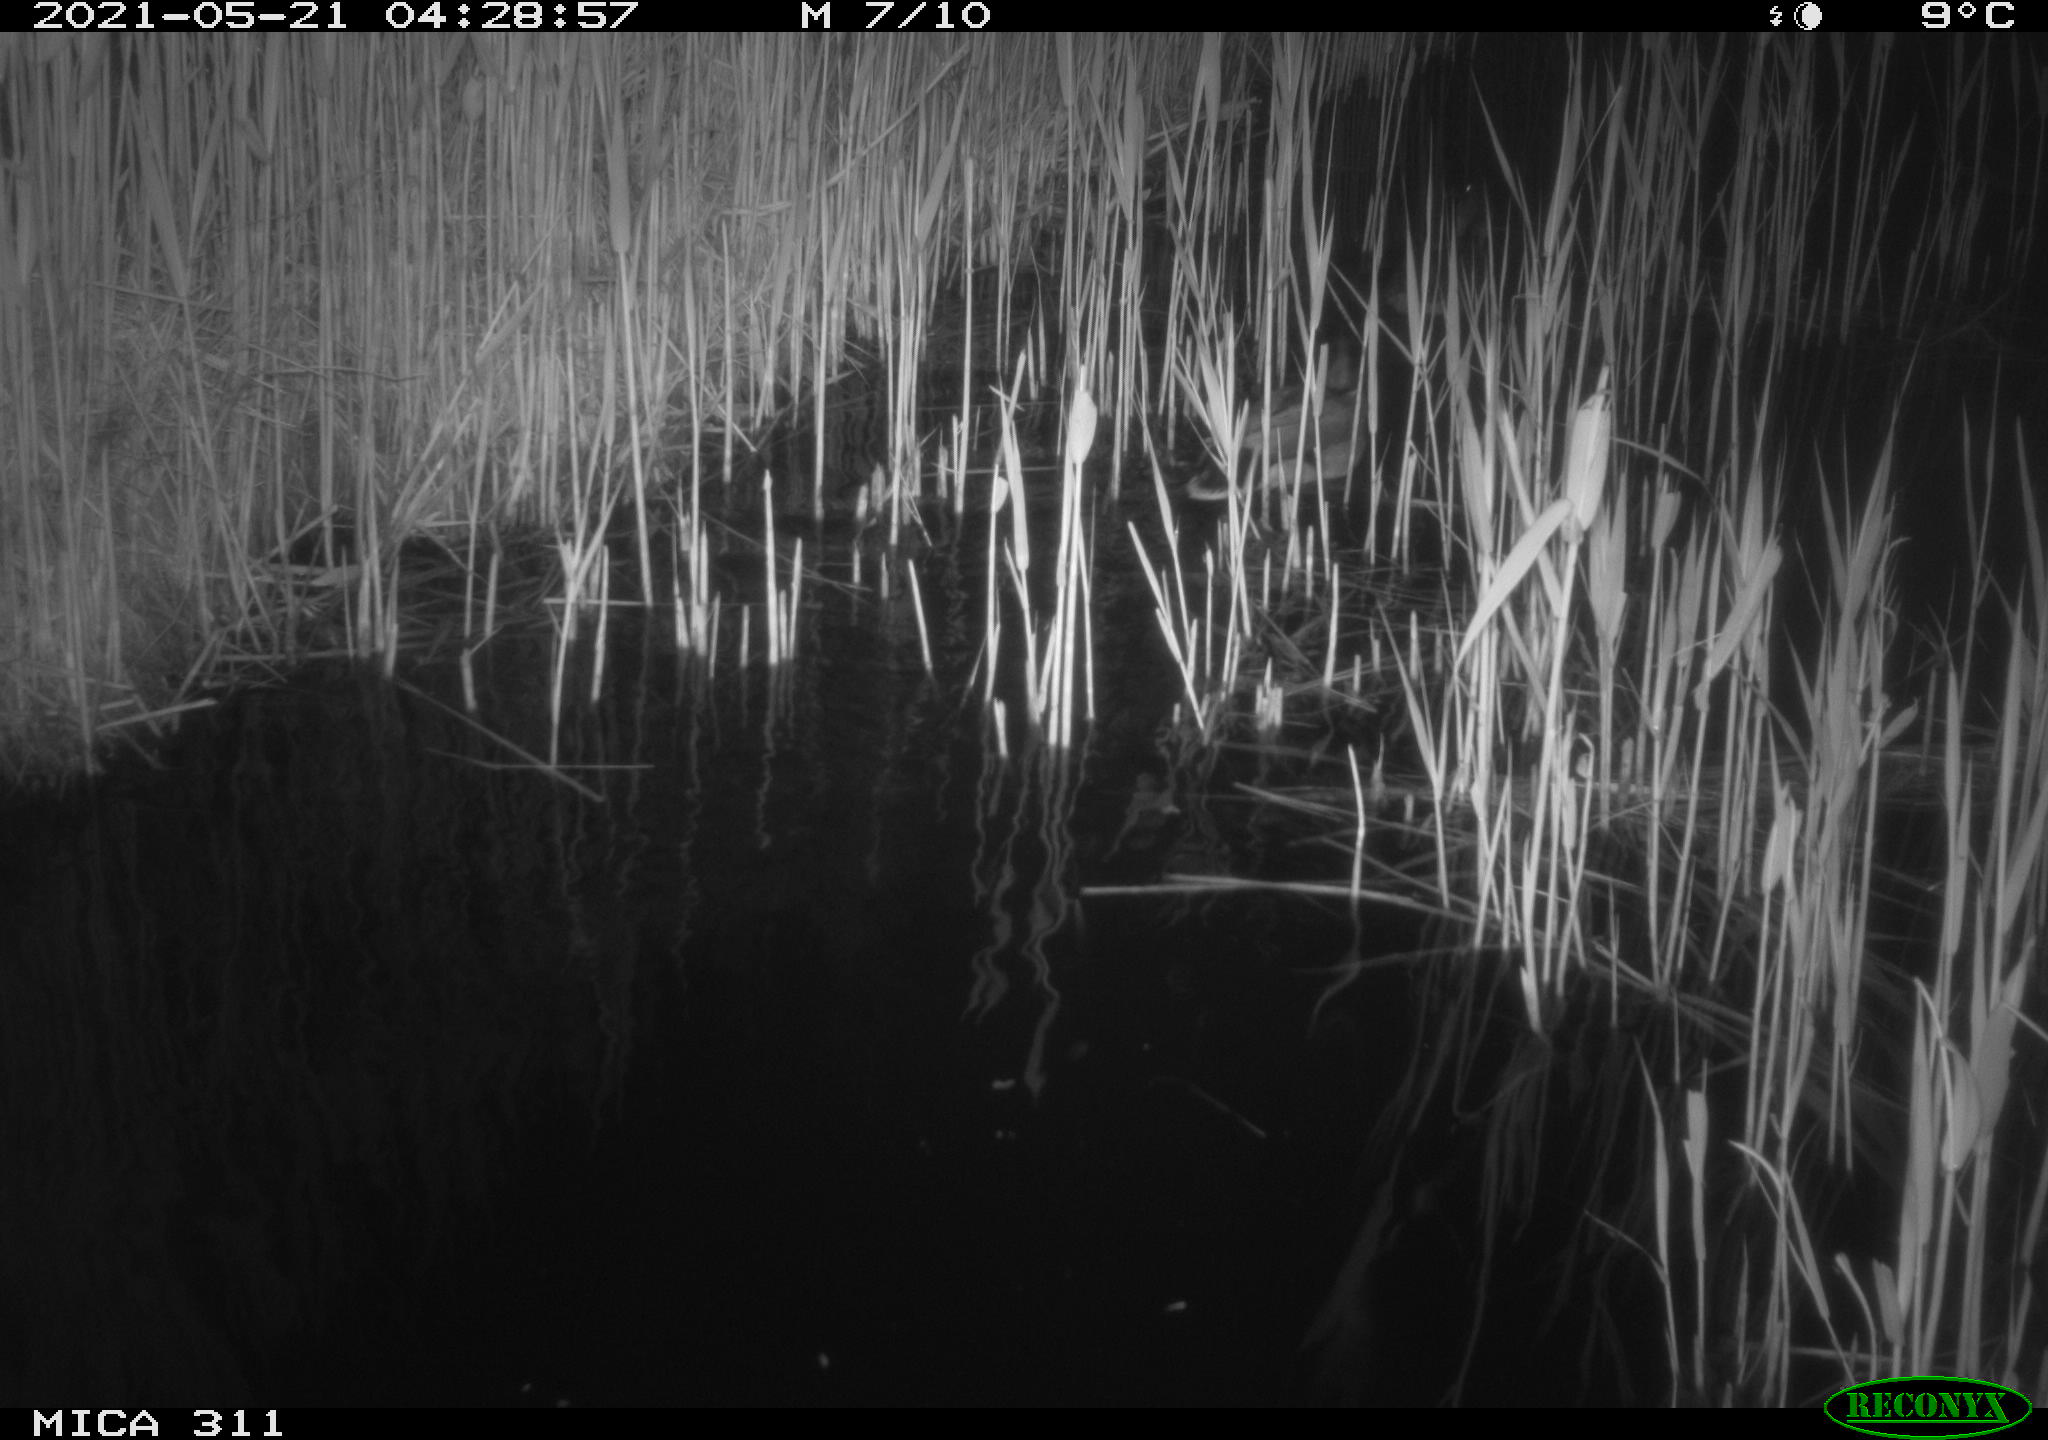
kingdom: Animalia
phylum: Chordata
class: Aves
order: Anseriformes
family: Anatidae
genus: Anas
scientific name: Anas
